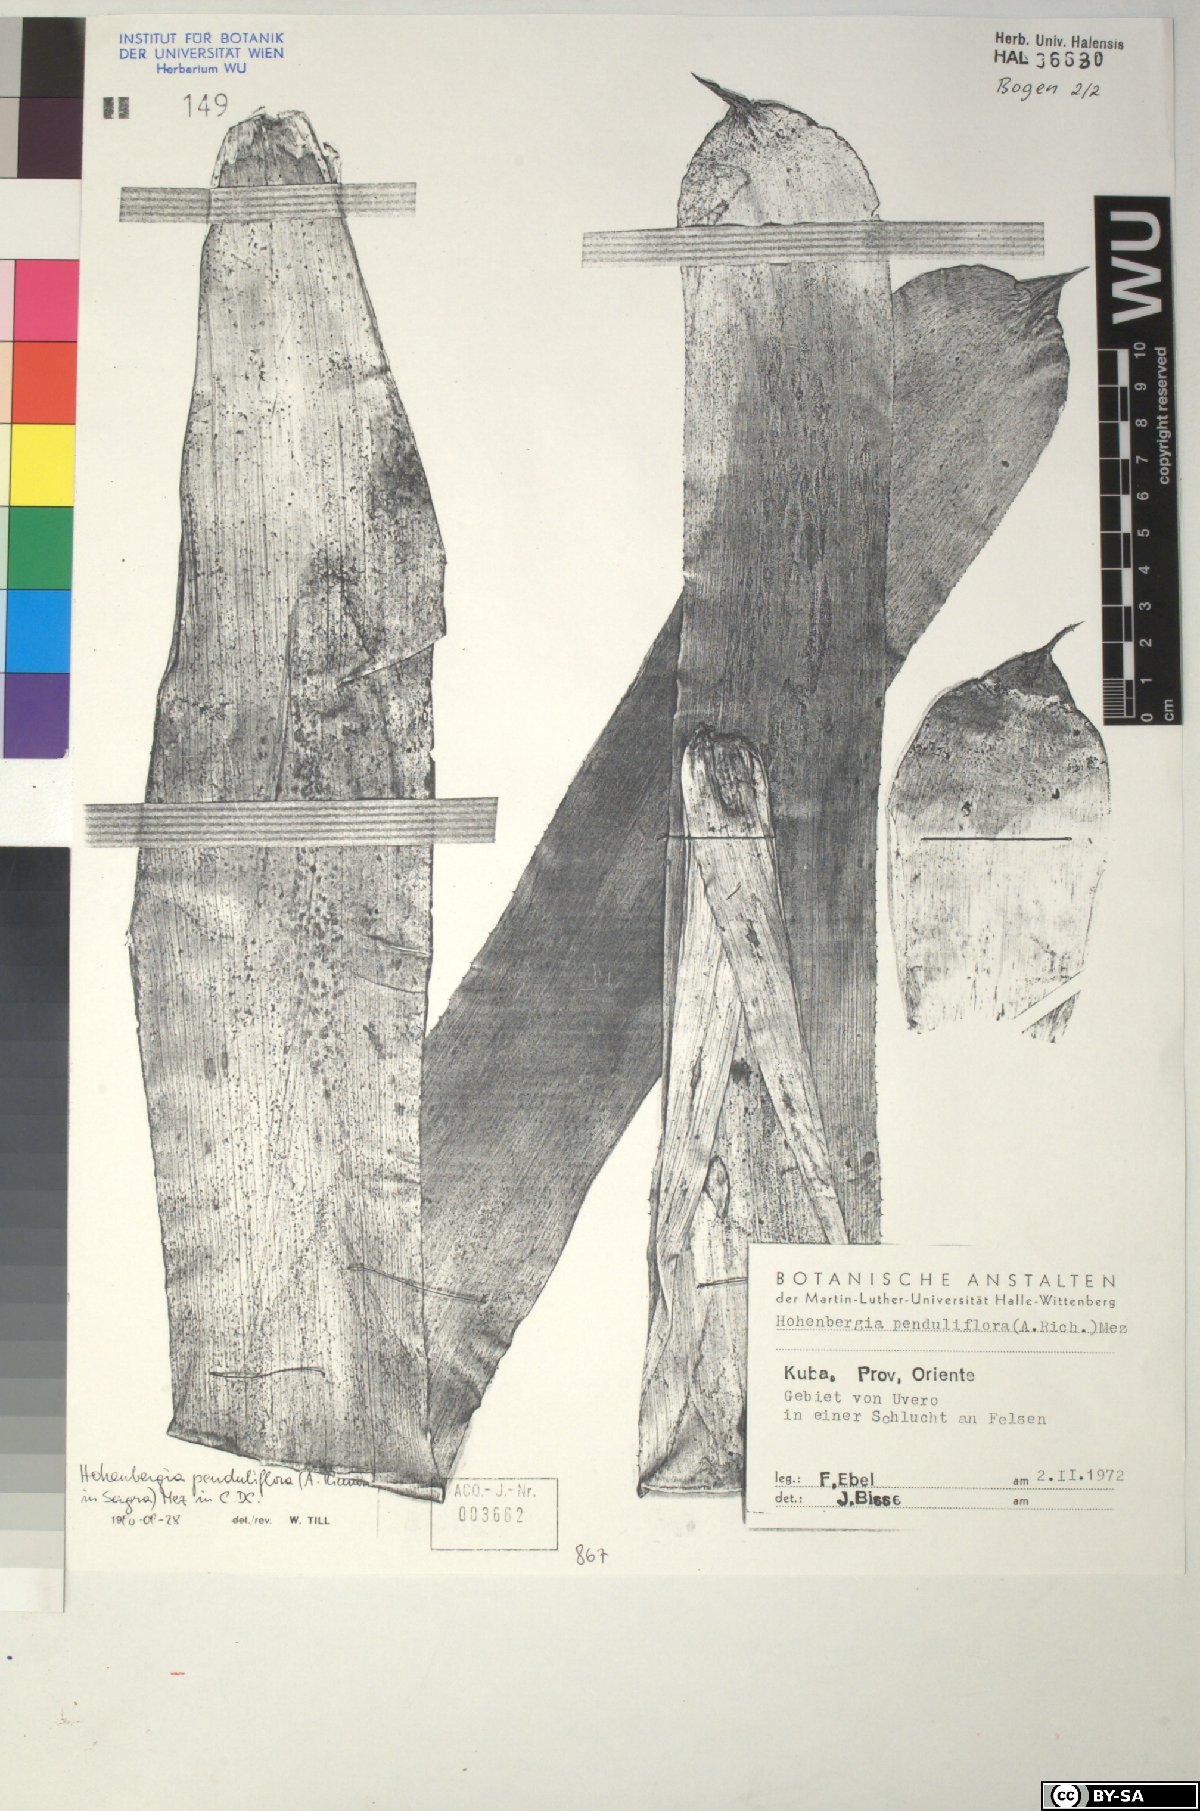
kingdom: Plantae
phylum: Tracheophyta
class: Liliopsida
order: Poales
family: Bromeliaceae
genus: Hohenbergia
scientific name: Hohenbergia
